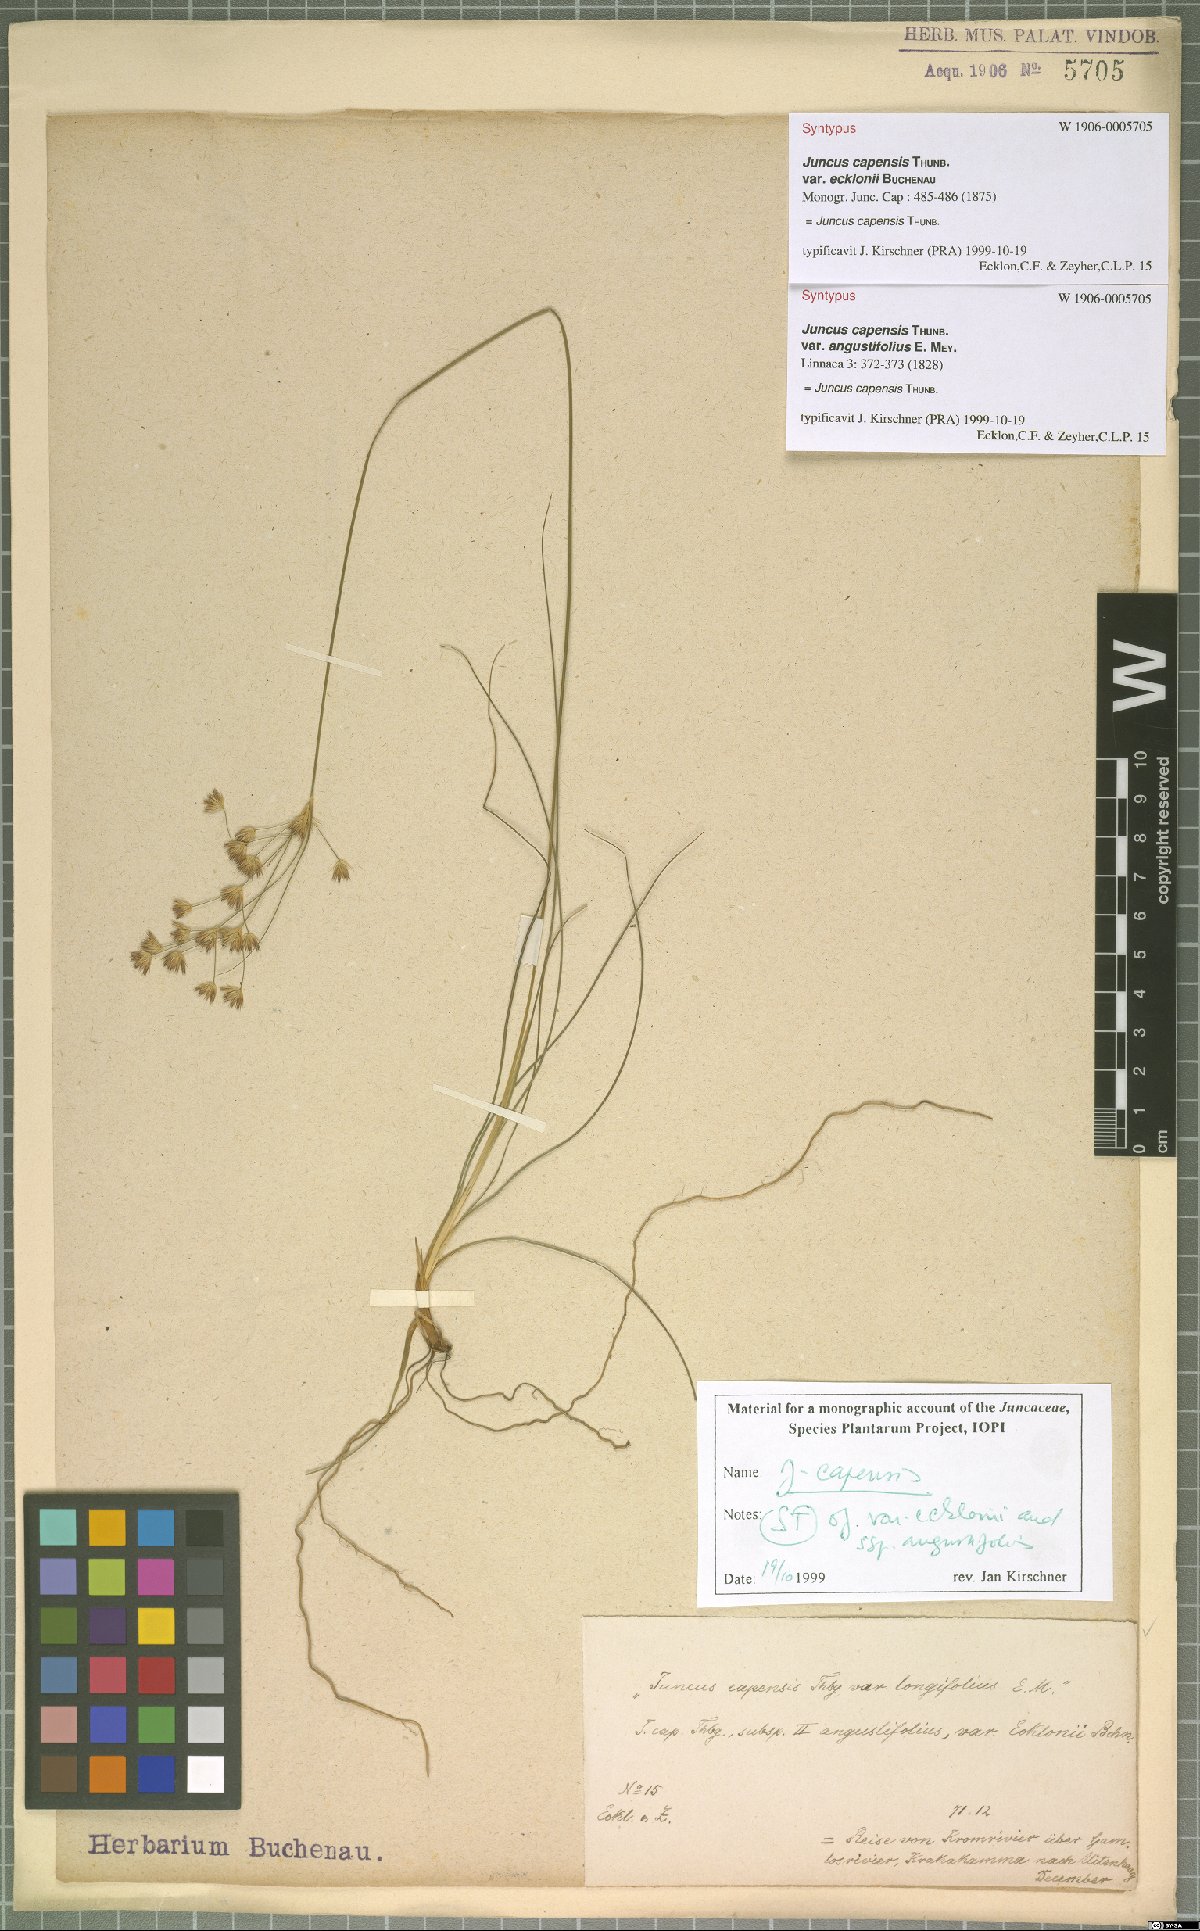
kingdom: Plantae
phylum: Tracheophyta
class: Liliopsida
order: Poales
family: Juncaceae
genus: Juncus
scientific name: Juncus capensis
